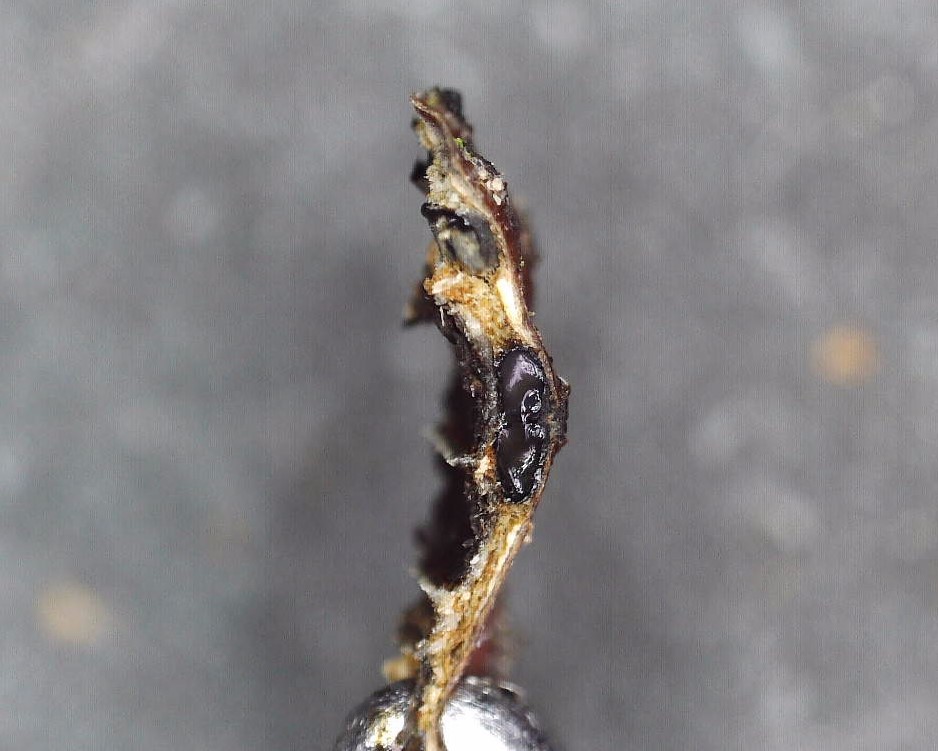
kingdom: Fungi
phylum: Ascomycota
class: Sordariomycetes
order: Xylariales
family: Diatrypaceae
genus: Eutypella
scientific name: Eutypella quaternata
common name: bøge-korsprik
